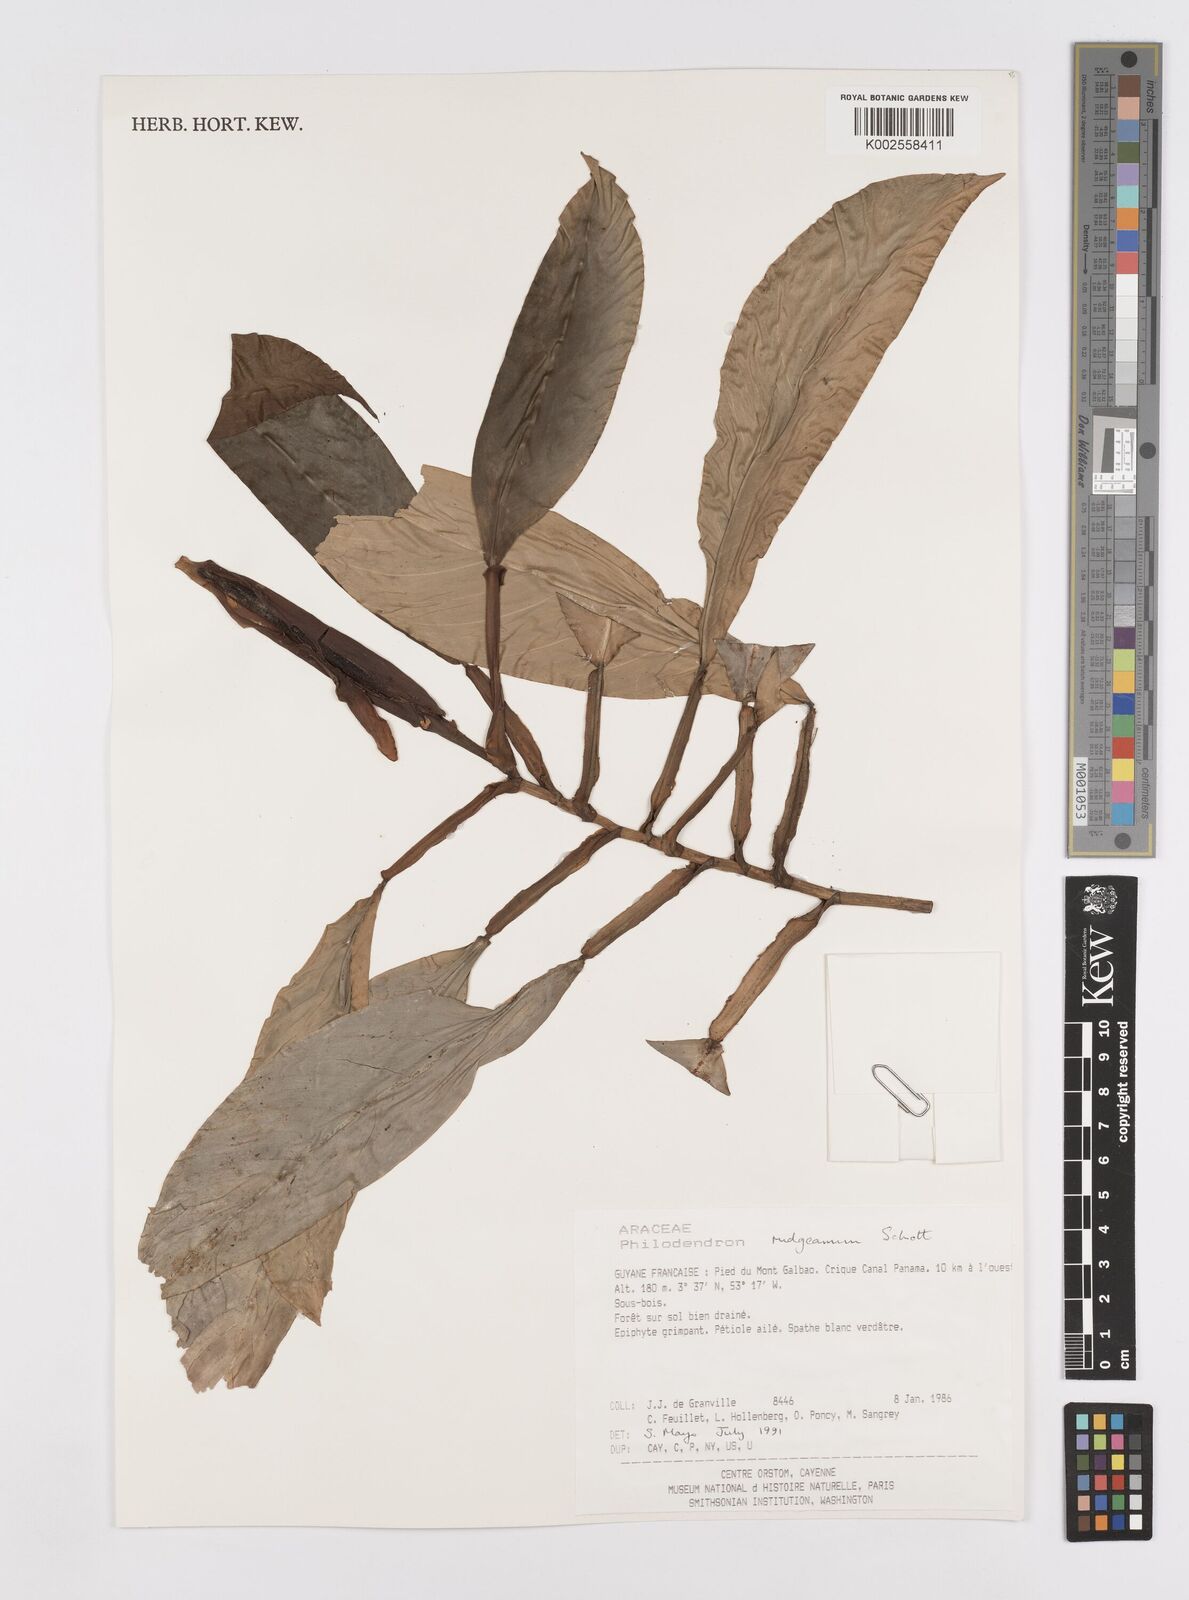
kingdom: Plantae
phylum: Tracheophyta
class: Liliopsida
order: Alismatales
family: Araceae
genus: Philodendron
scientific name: Philodendron rudgeanum
